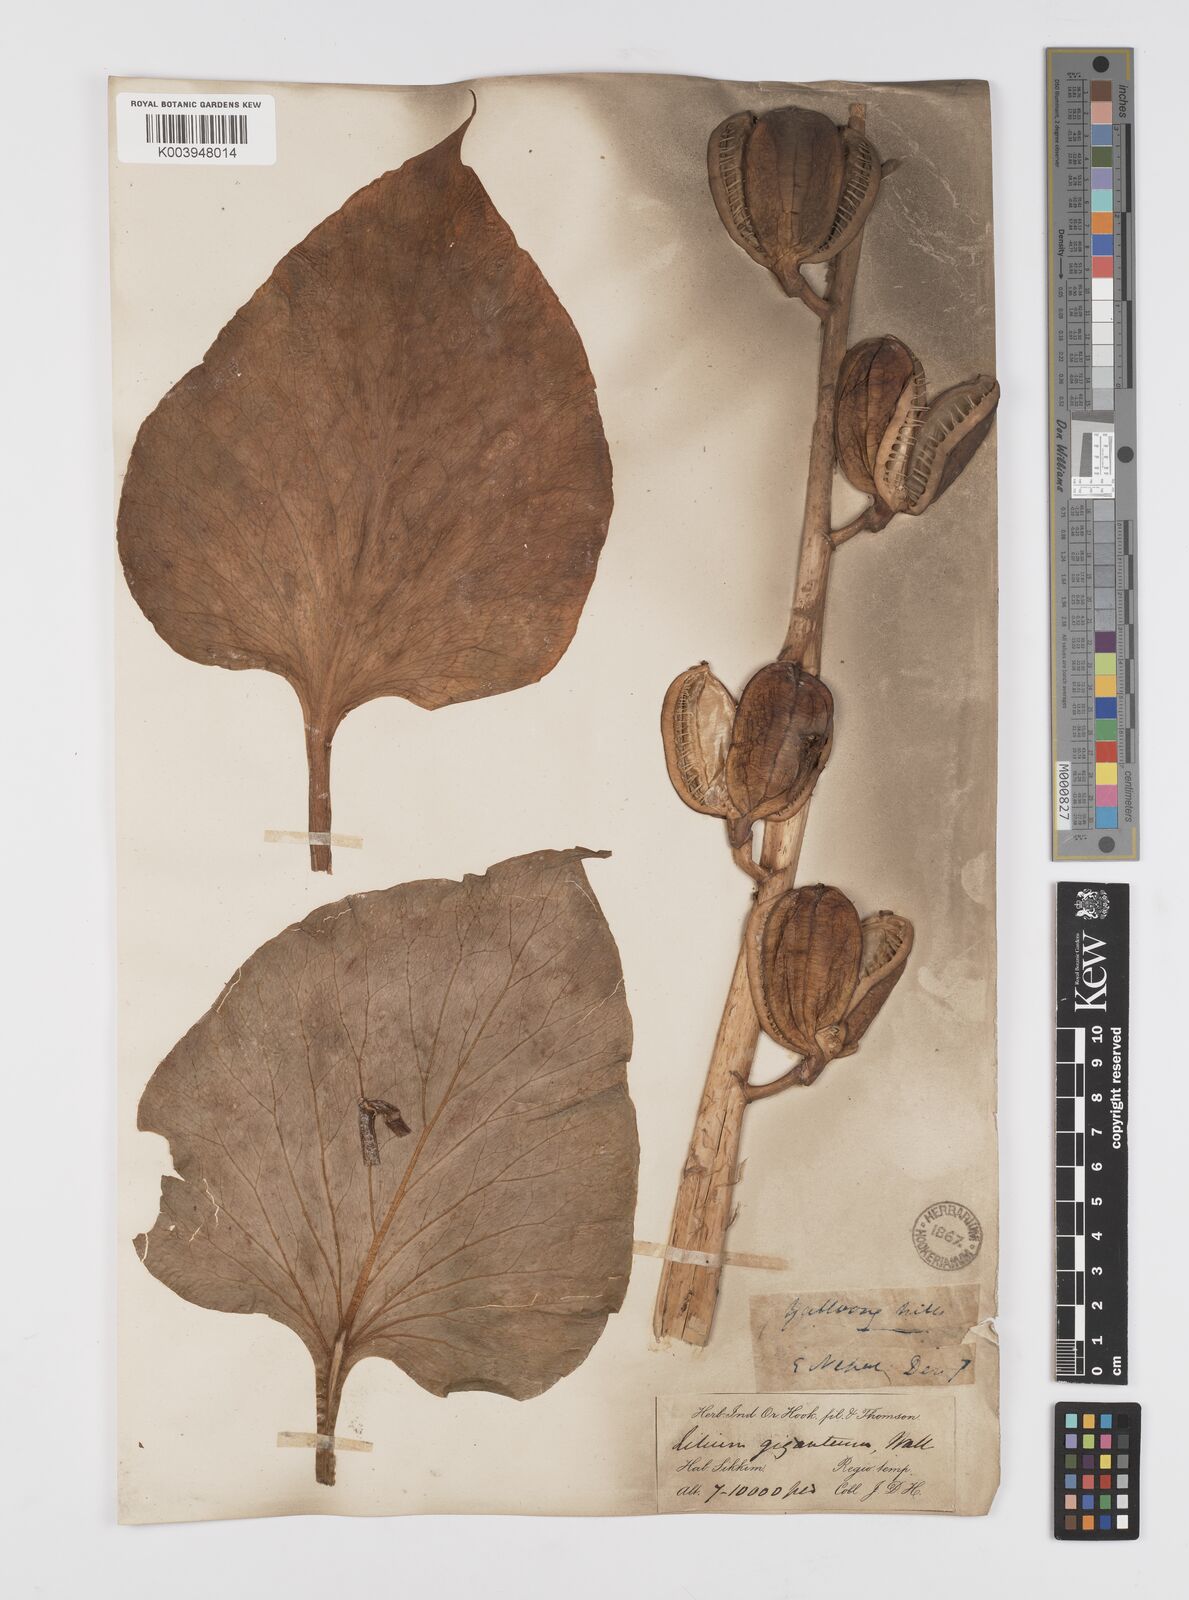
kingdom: Plantae
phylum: Tracheophyta
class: Liliopsida
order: Liliales
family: Liliaceae
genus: Cardiocrinum
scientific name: Cardiocrinum giganteum
